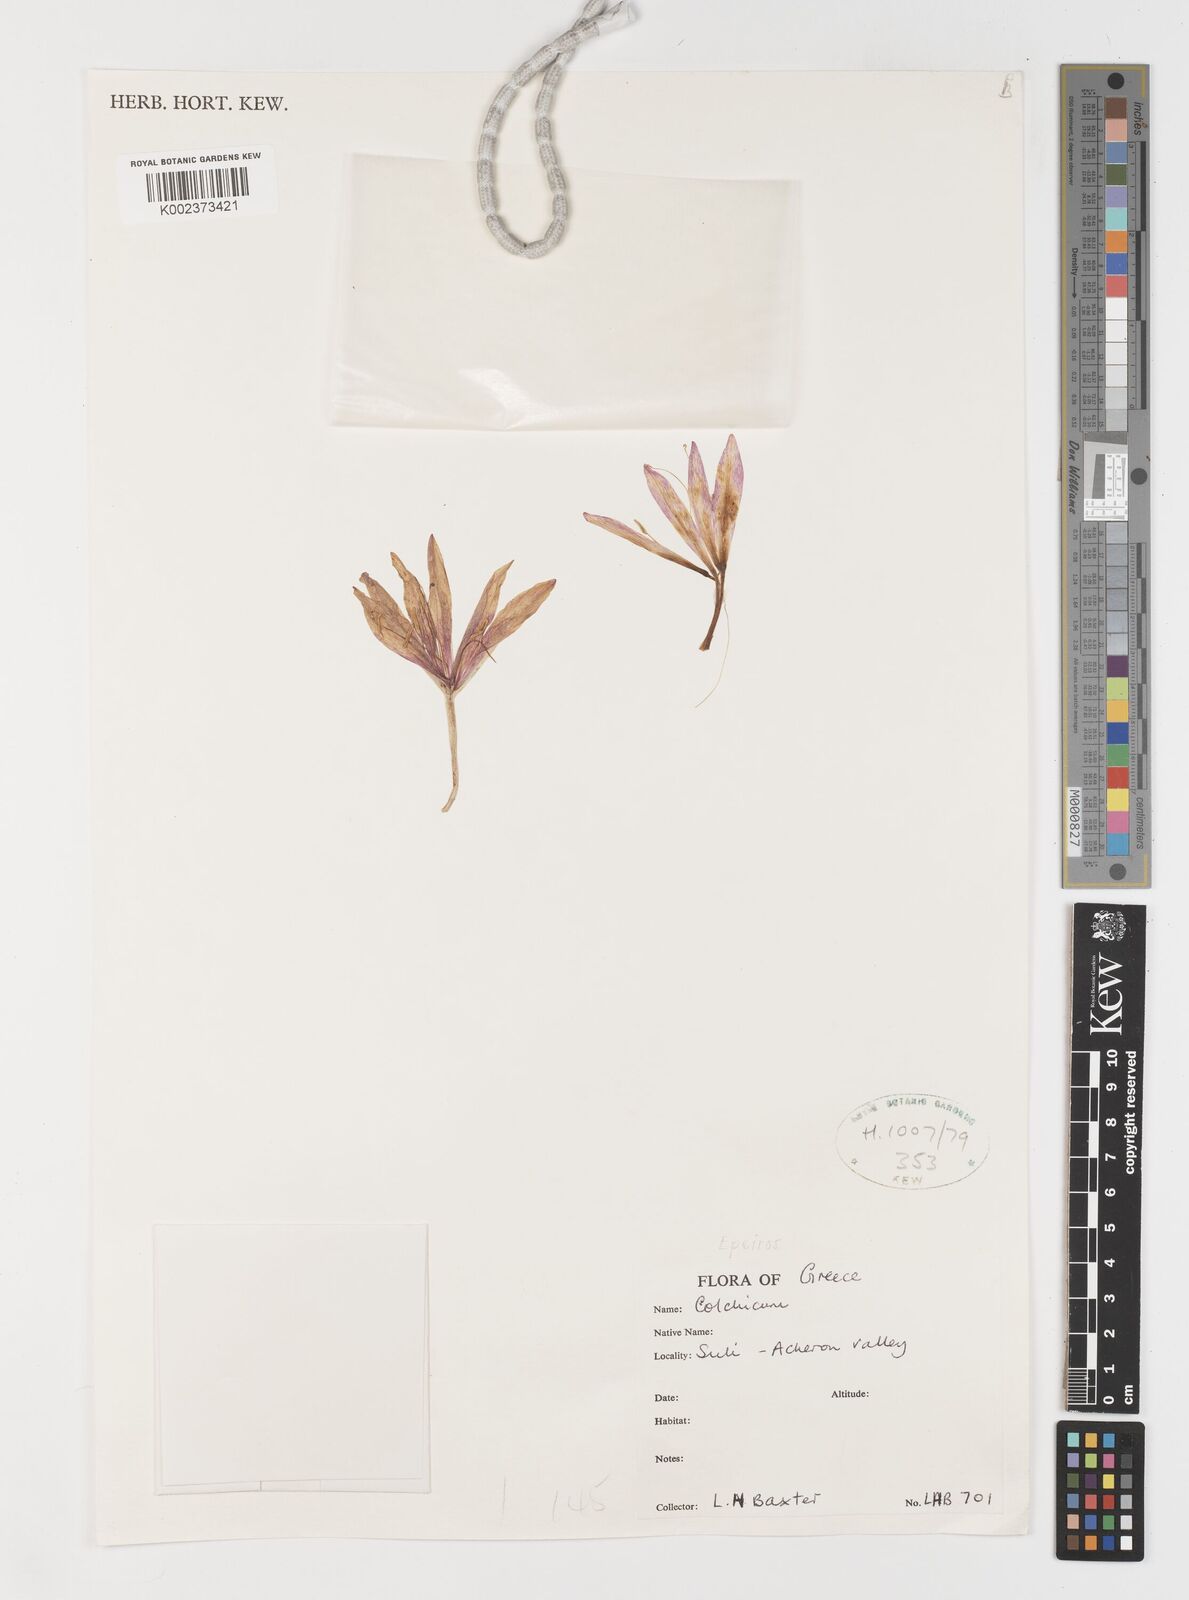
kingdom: Plantae
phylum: Tracheophyta
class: Liliopsida
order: Liliales
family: Colchicaceae
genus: Colchicum
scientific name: Colchicum
